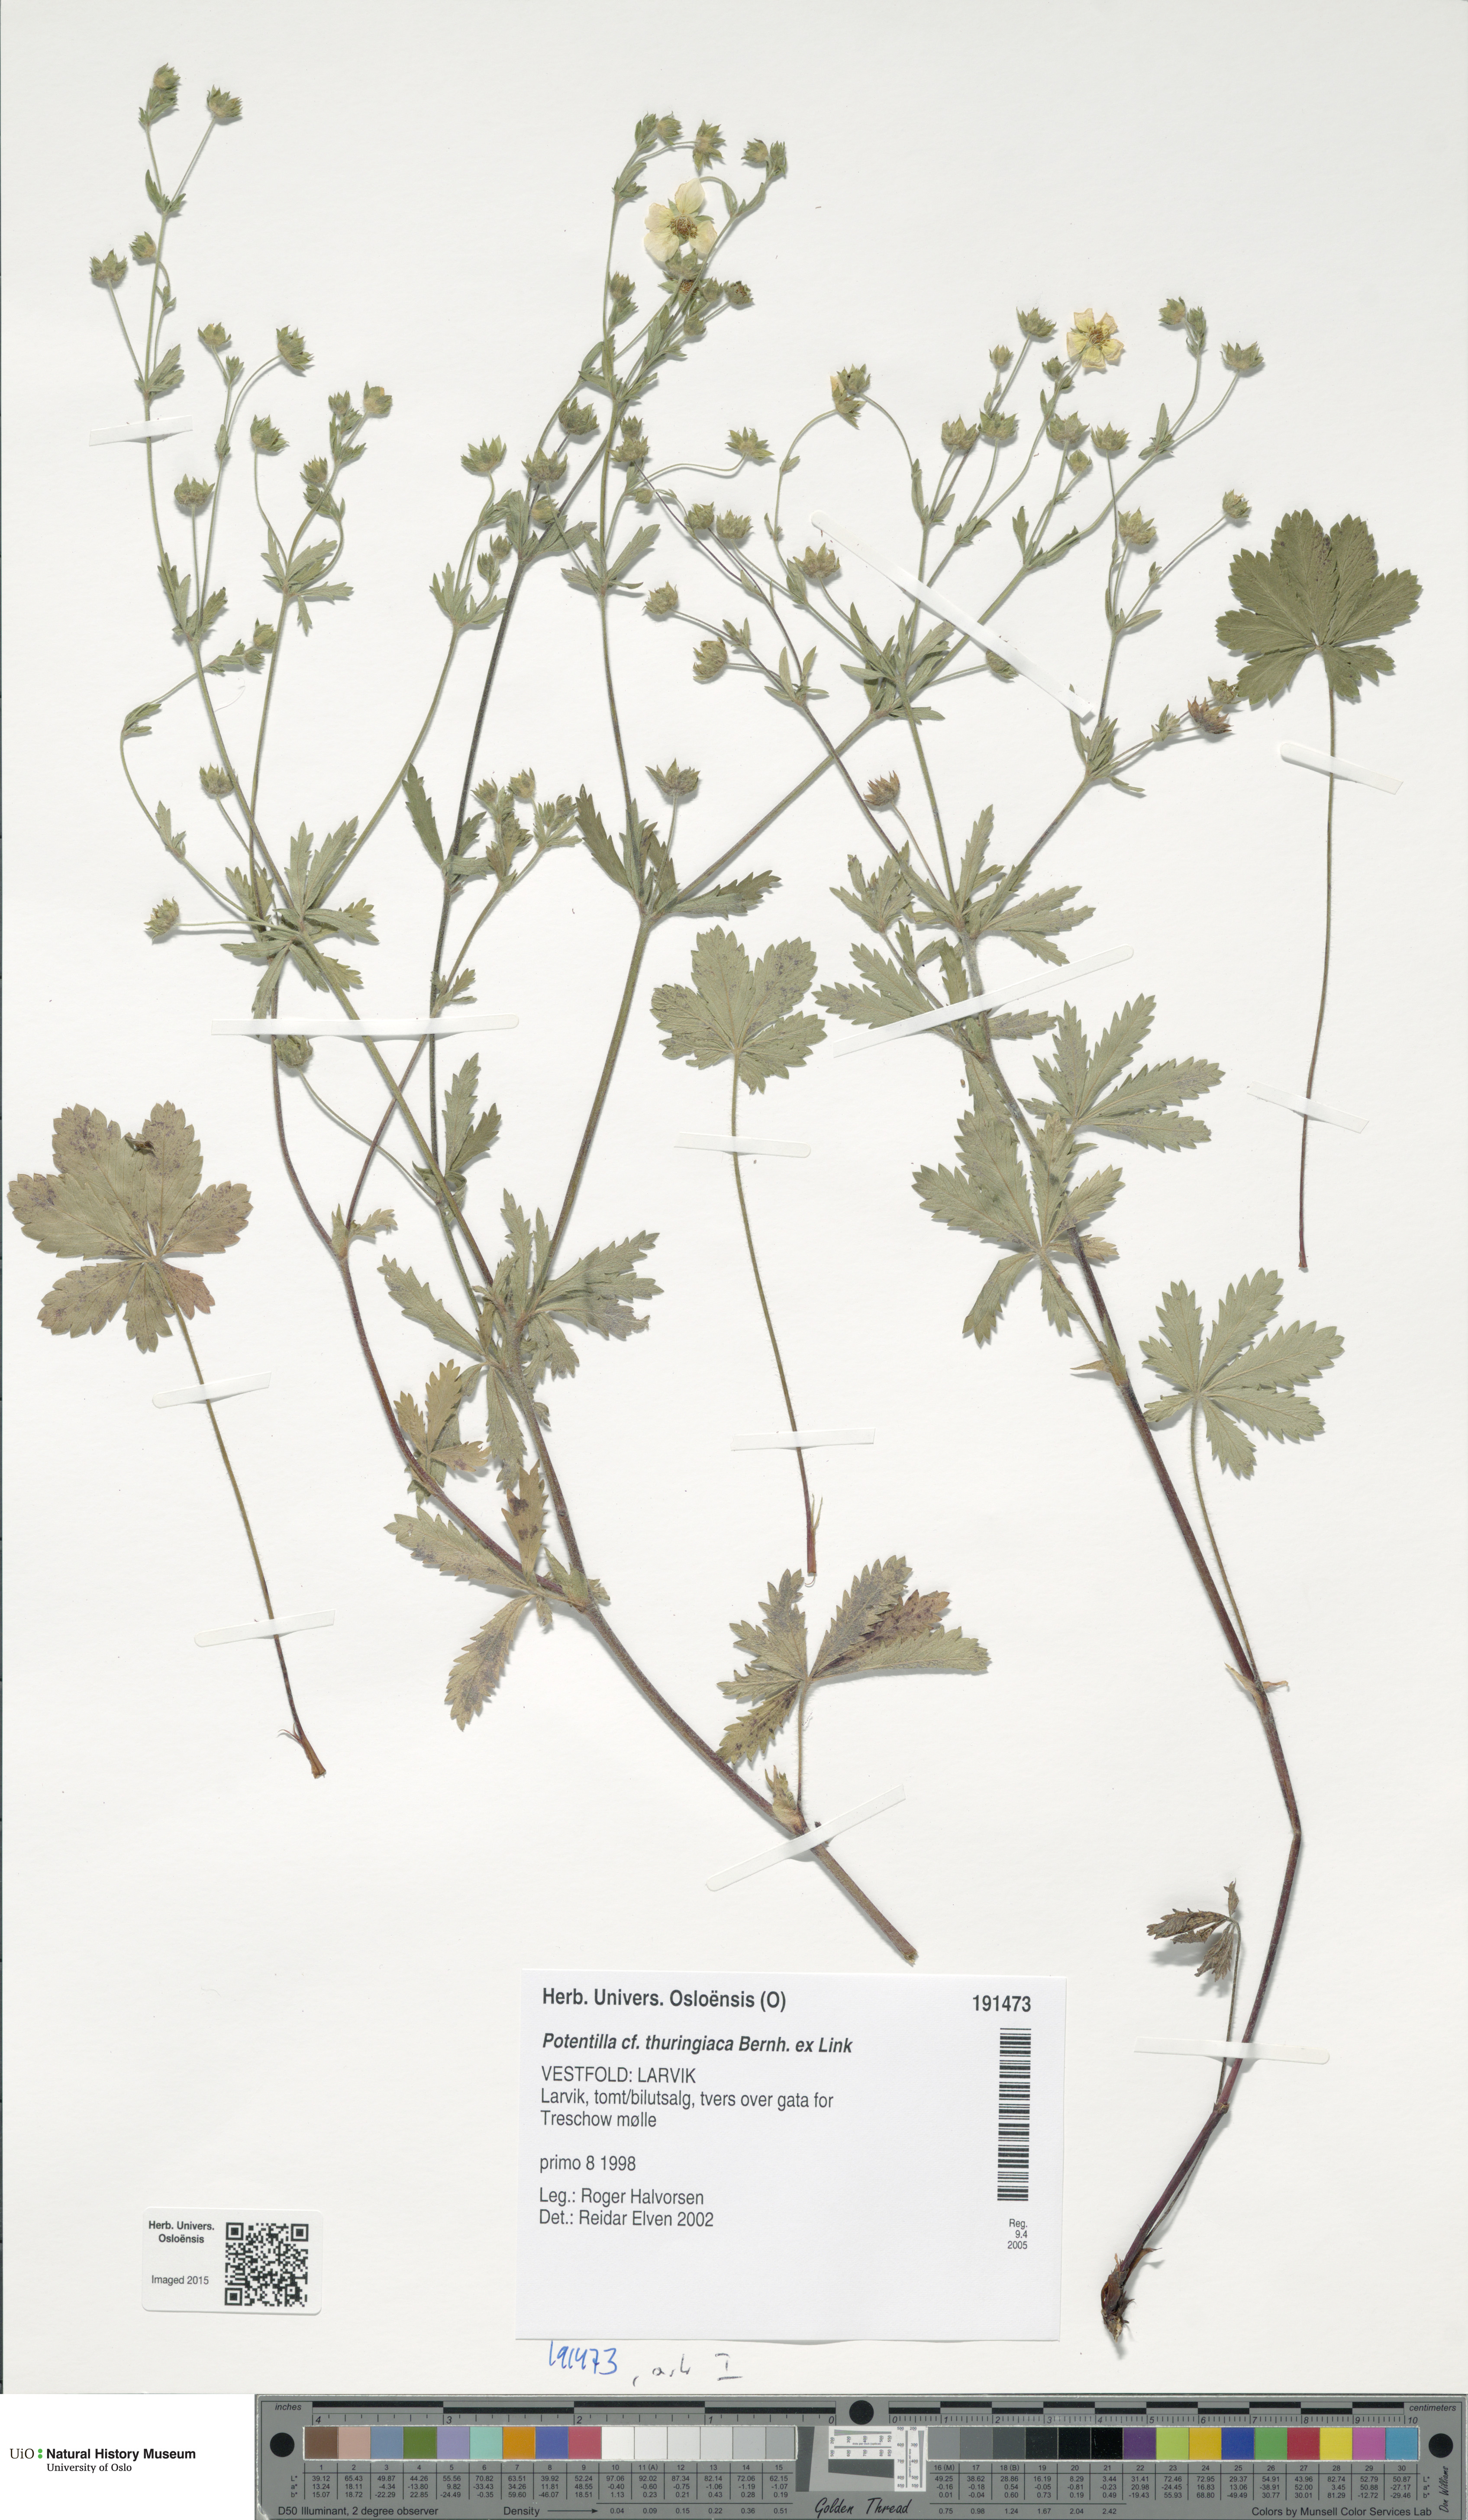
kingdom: Plantae
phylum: Tracheophyta
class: Magnoliopsida
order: Rosales
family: Rosaceae
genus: Potentilla
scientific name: Potentilla thuringiaca
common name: European cinquefoil
